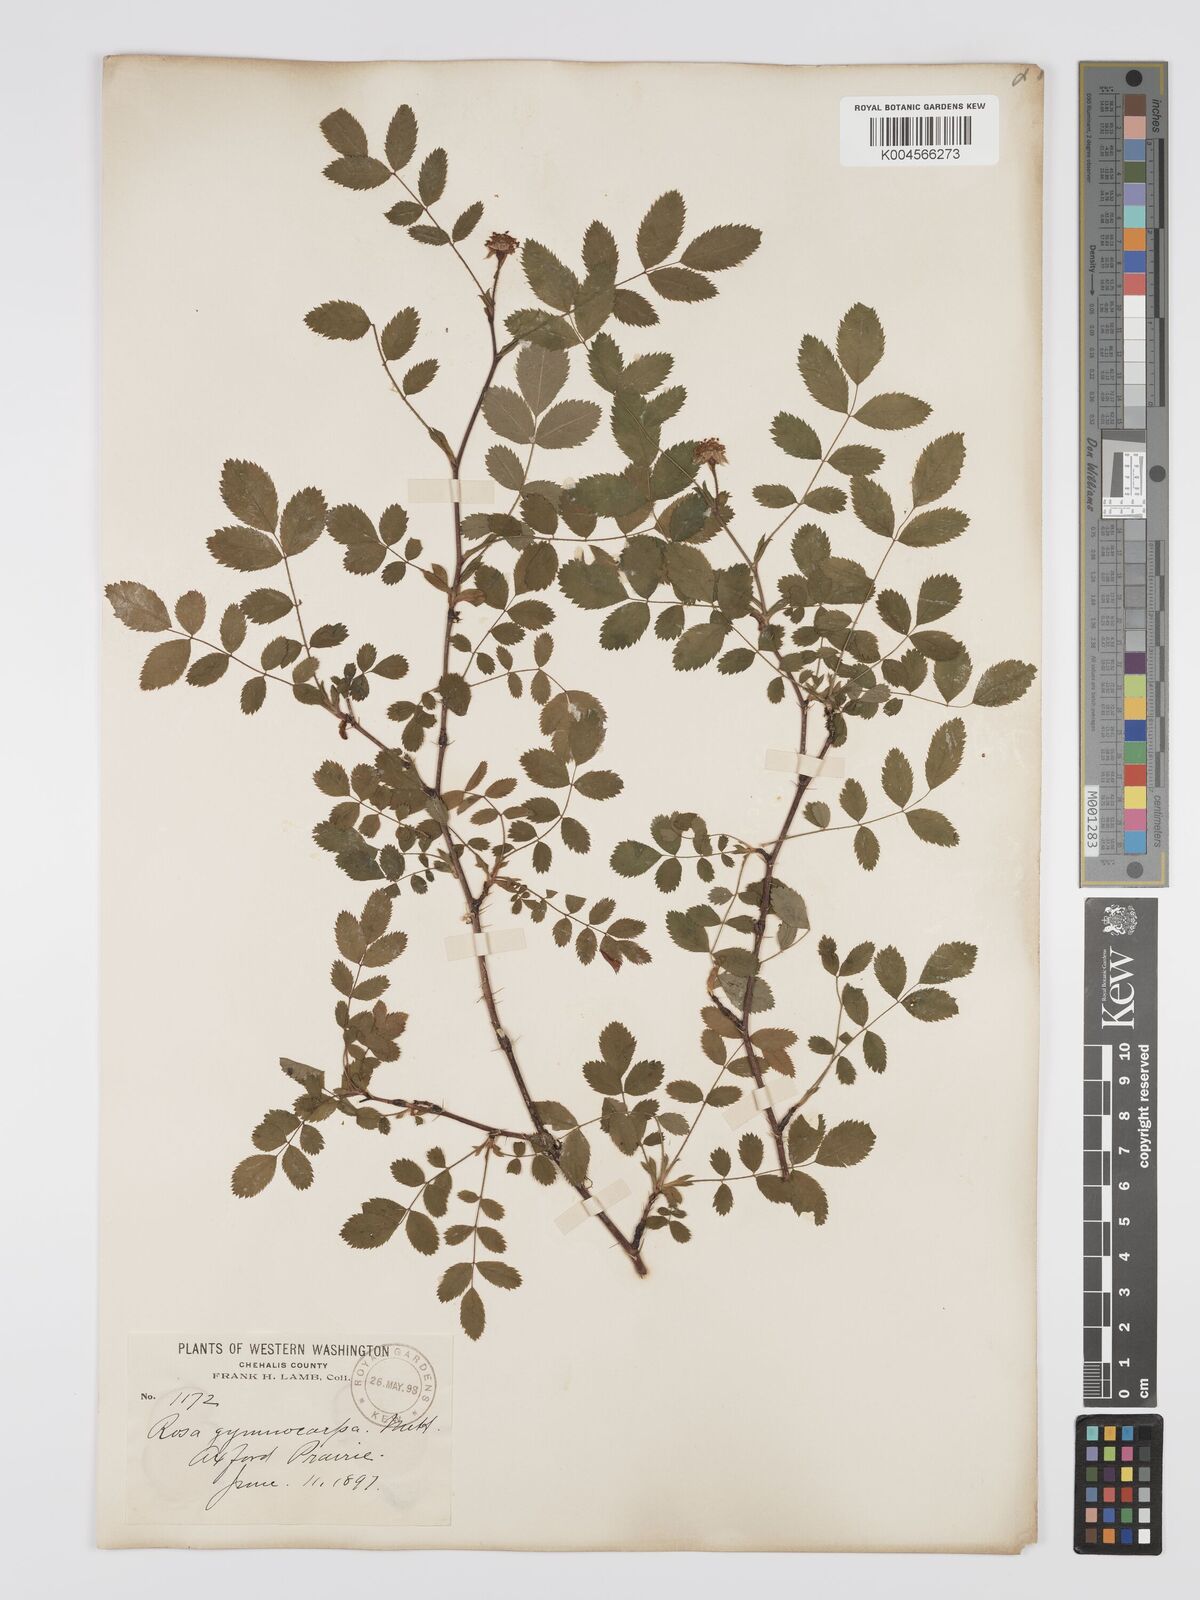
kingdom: Plantae
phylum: Tracheophyta
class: Magnoliopsida
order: Rosales
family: Rosaceae
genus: Rosa
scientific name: Rosa gymnocarpa
